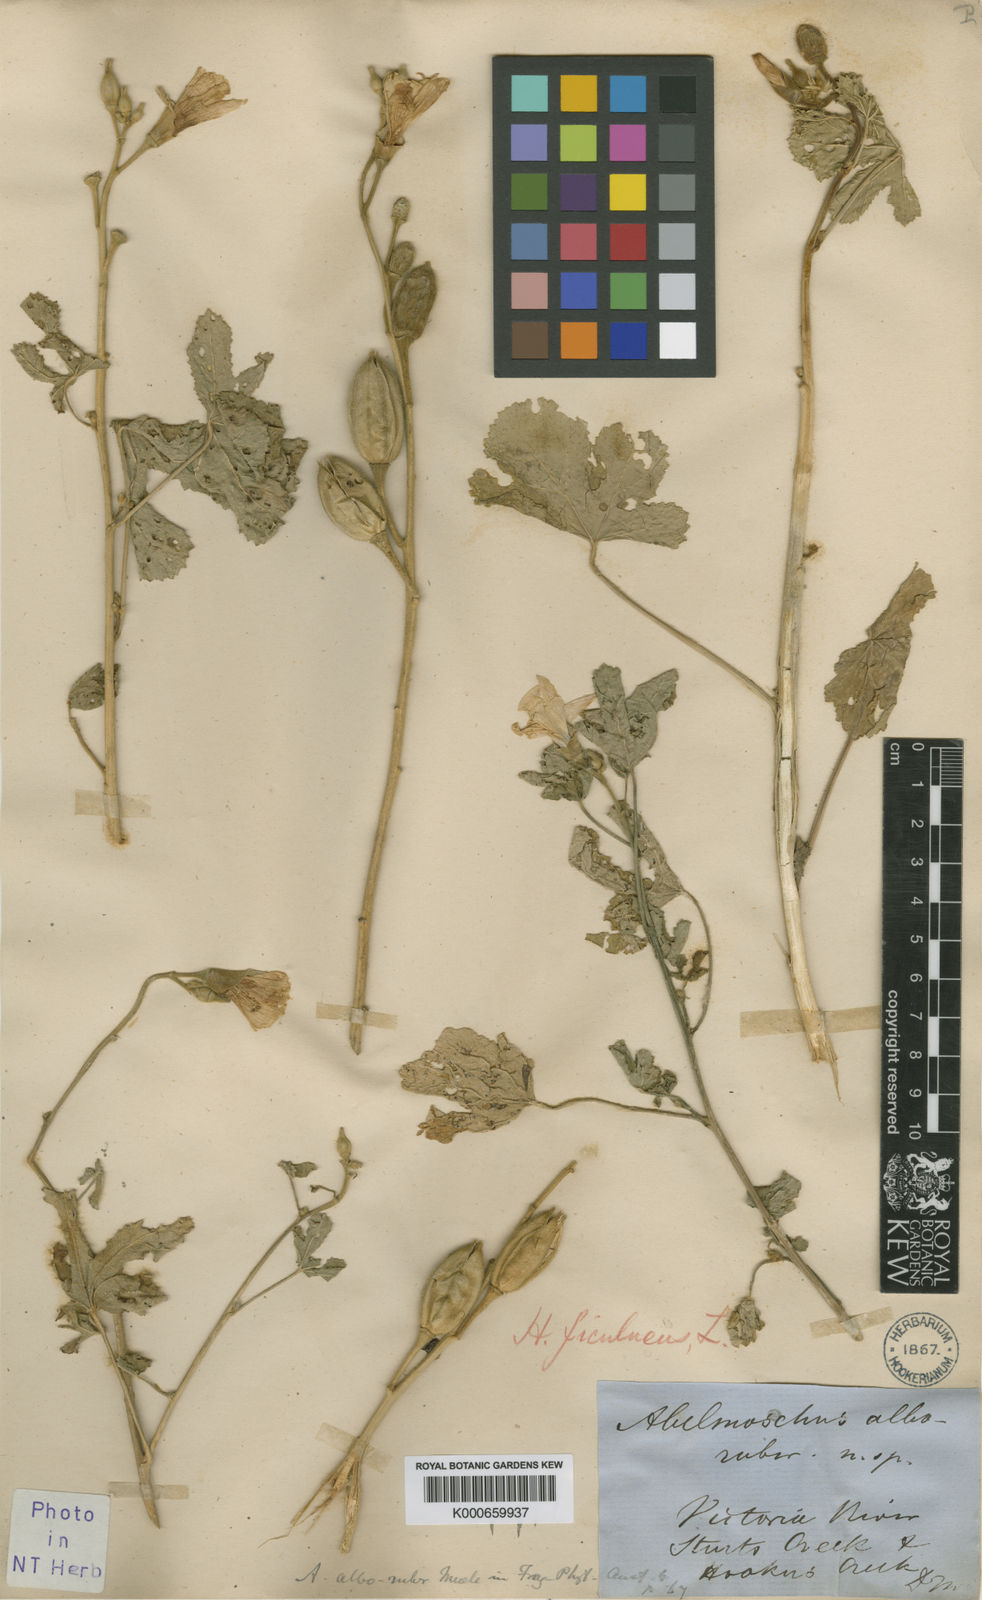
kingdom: Plantae
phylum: Tracheophyta
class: Magnoliopsida
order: Malvales
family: Malvaceae
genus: Abelmoschus
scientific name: Abelmoschus ficulneus
